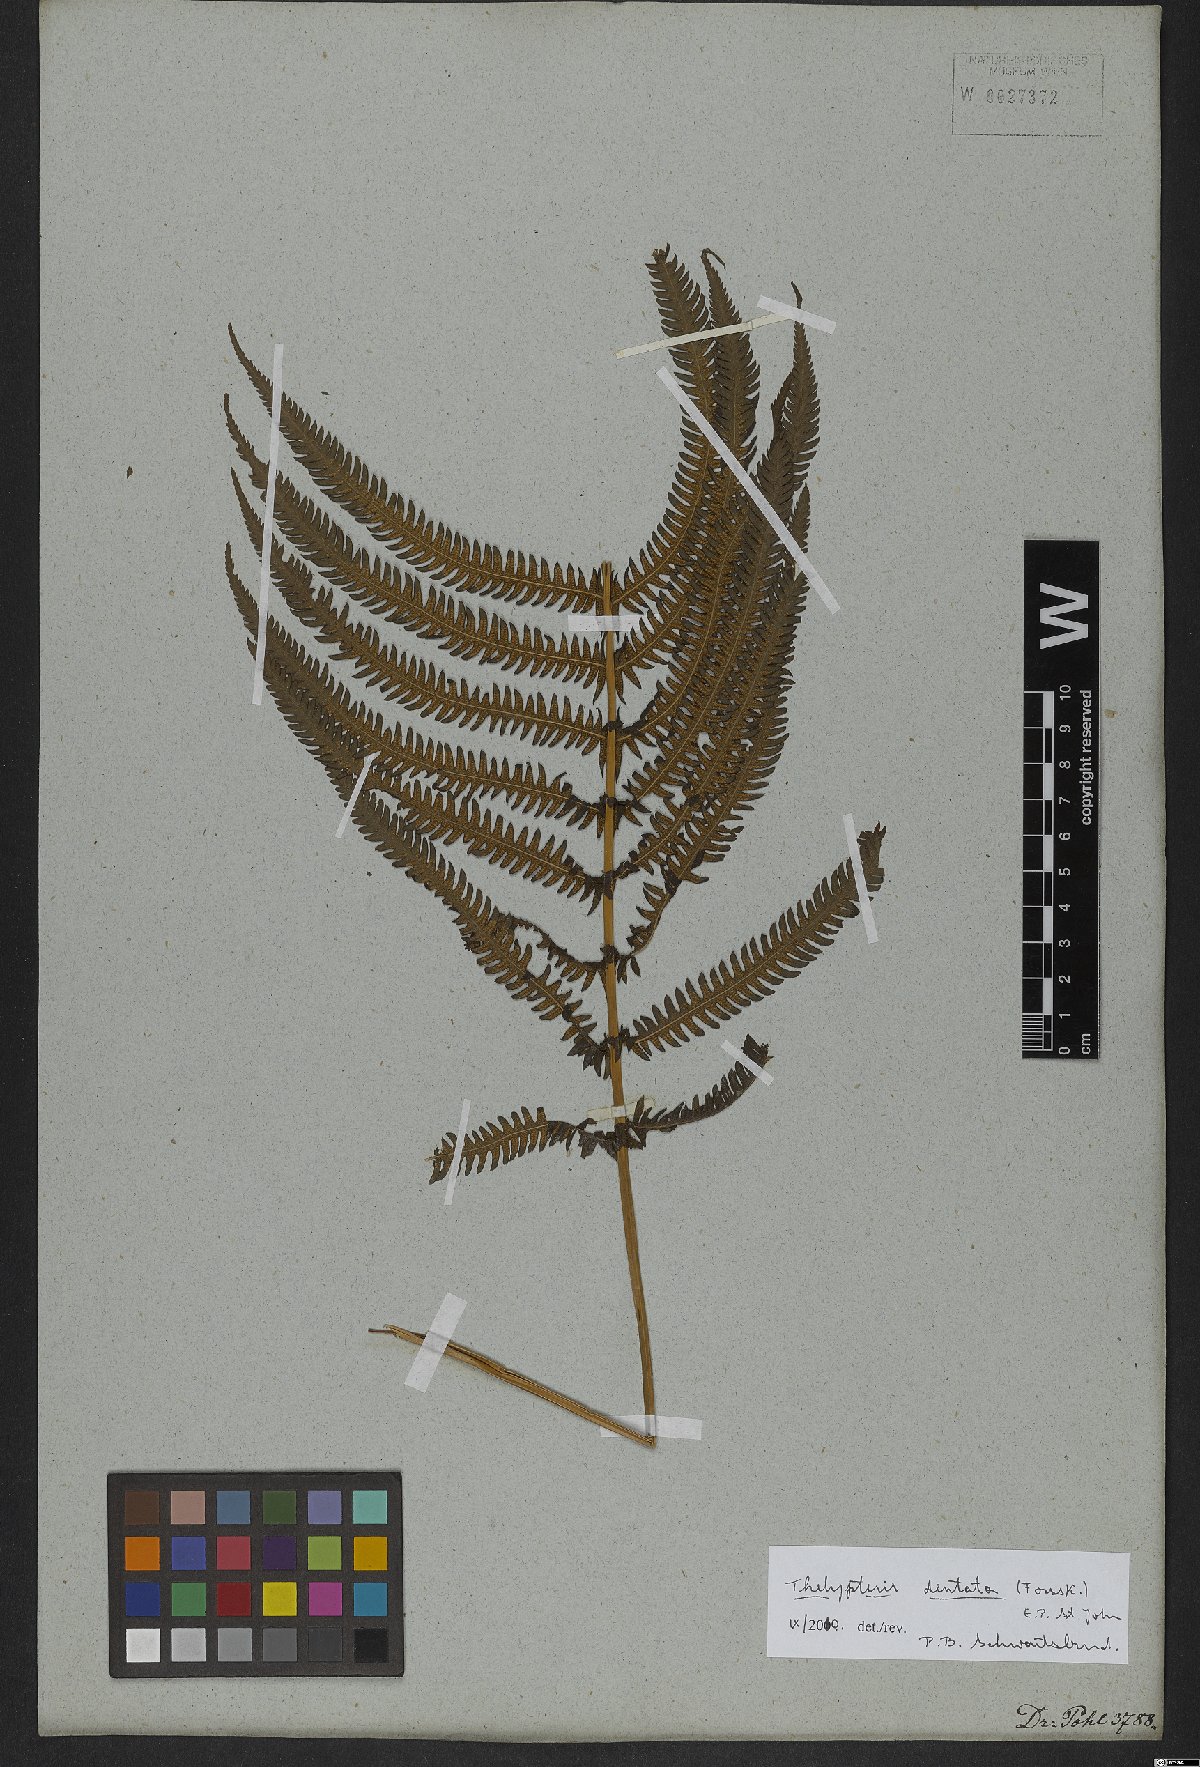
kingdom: Plantae
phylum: Tracheophyta
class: Polypodiopsida
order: Polypodiales
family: Thelypteridaceae
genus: Christella
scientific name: Christella dentata
